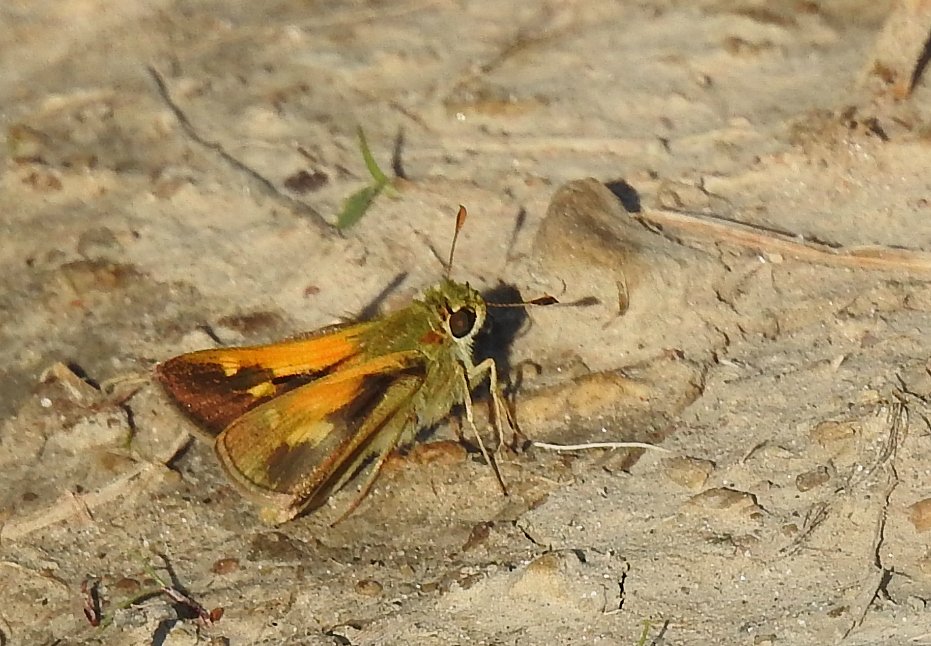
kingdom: Animalia
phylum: Arthropoda
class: Insecta
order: Lepidoptera
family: Hesperiidae
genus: Polites
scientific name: Polites themistocles
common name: Tawny-edged Skipper
